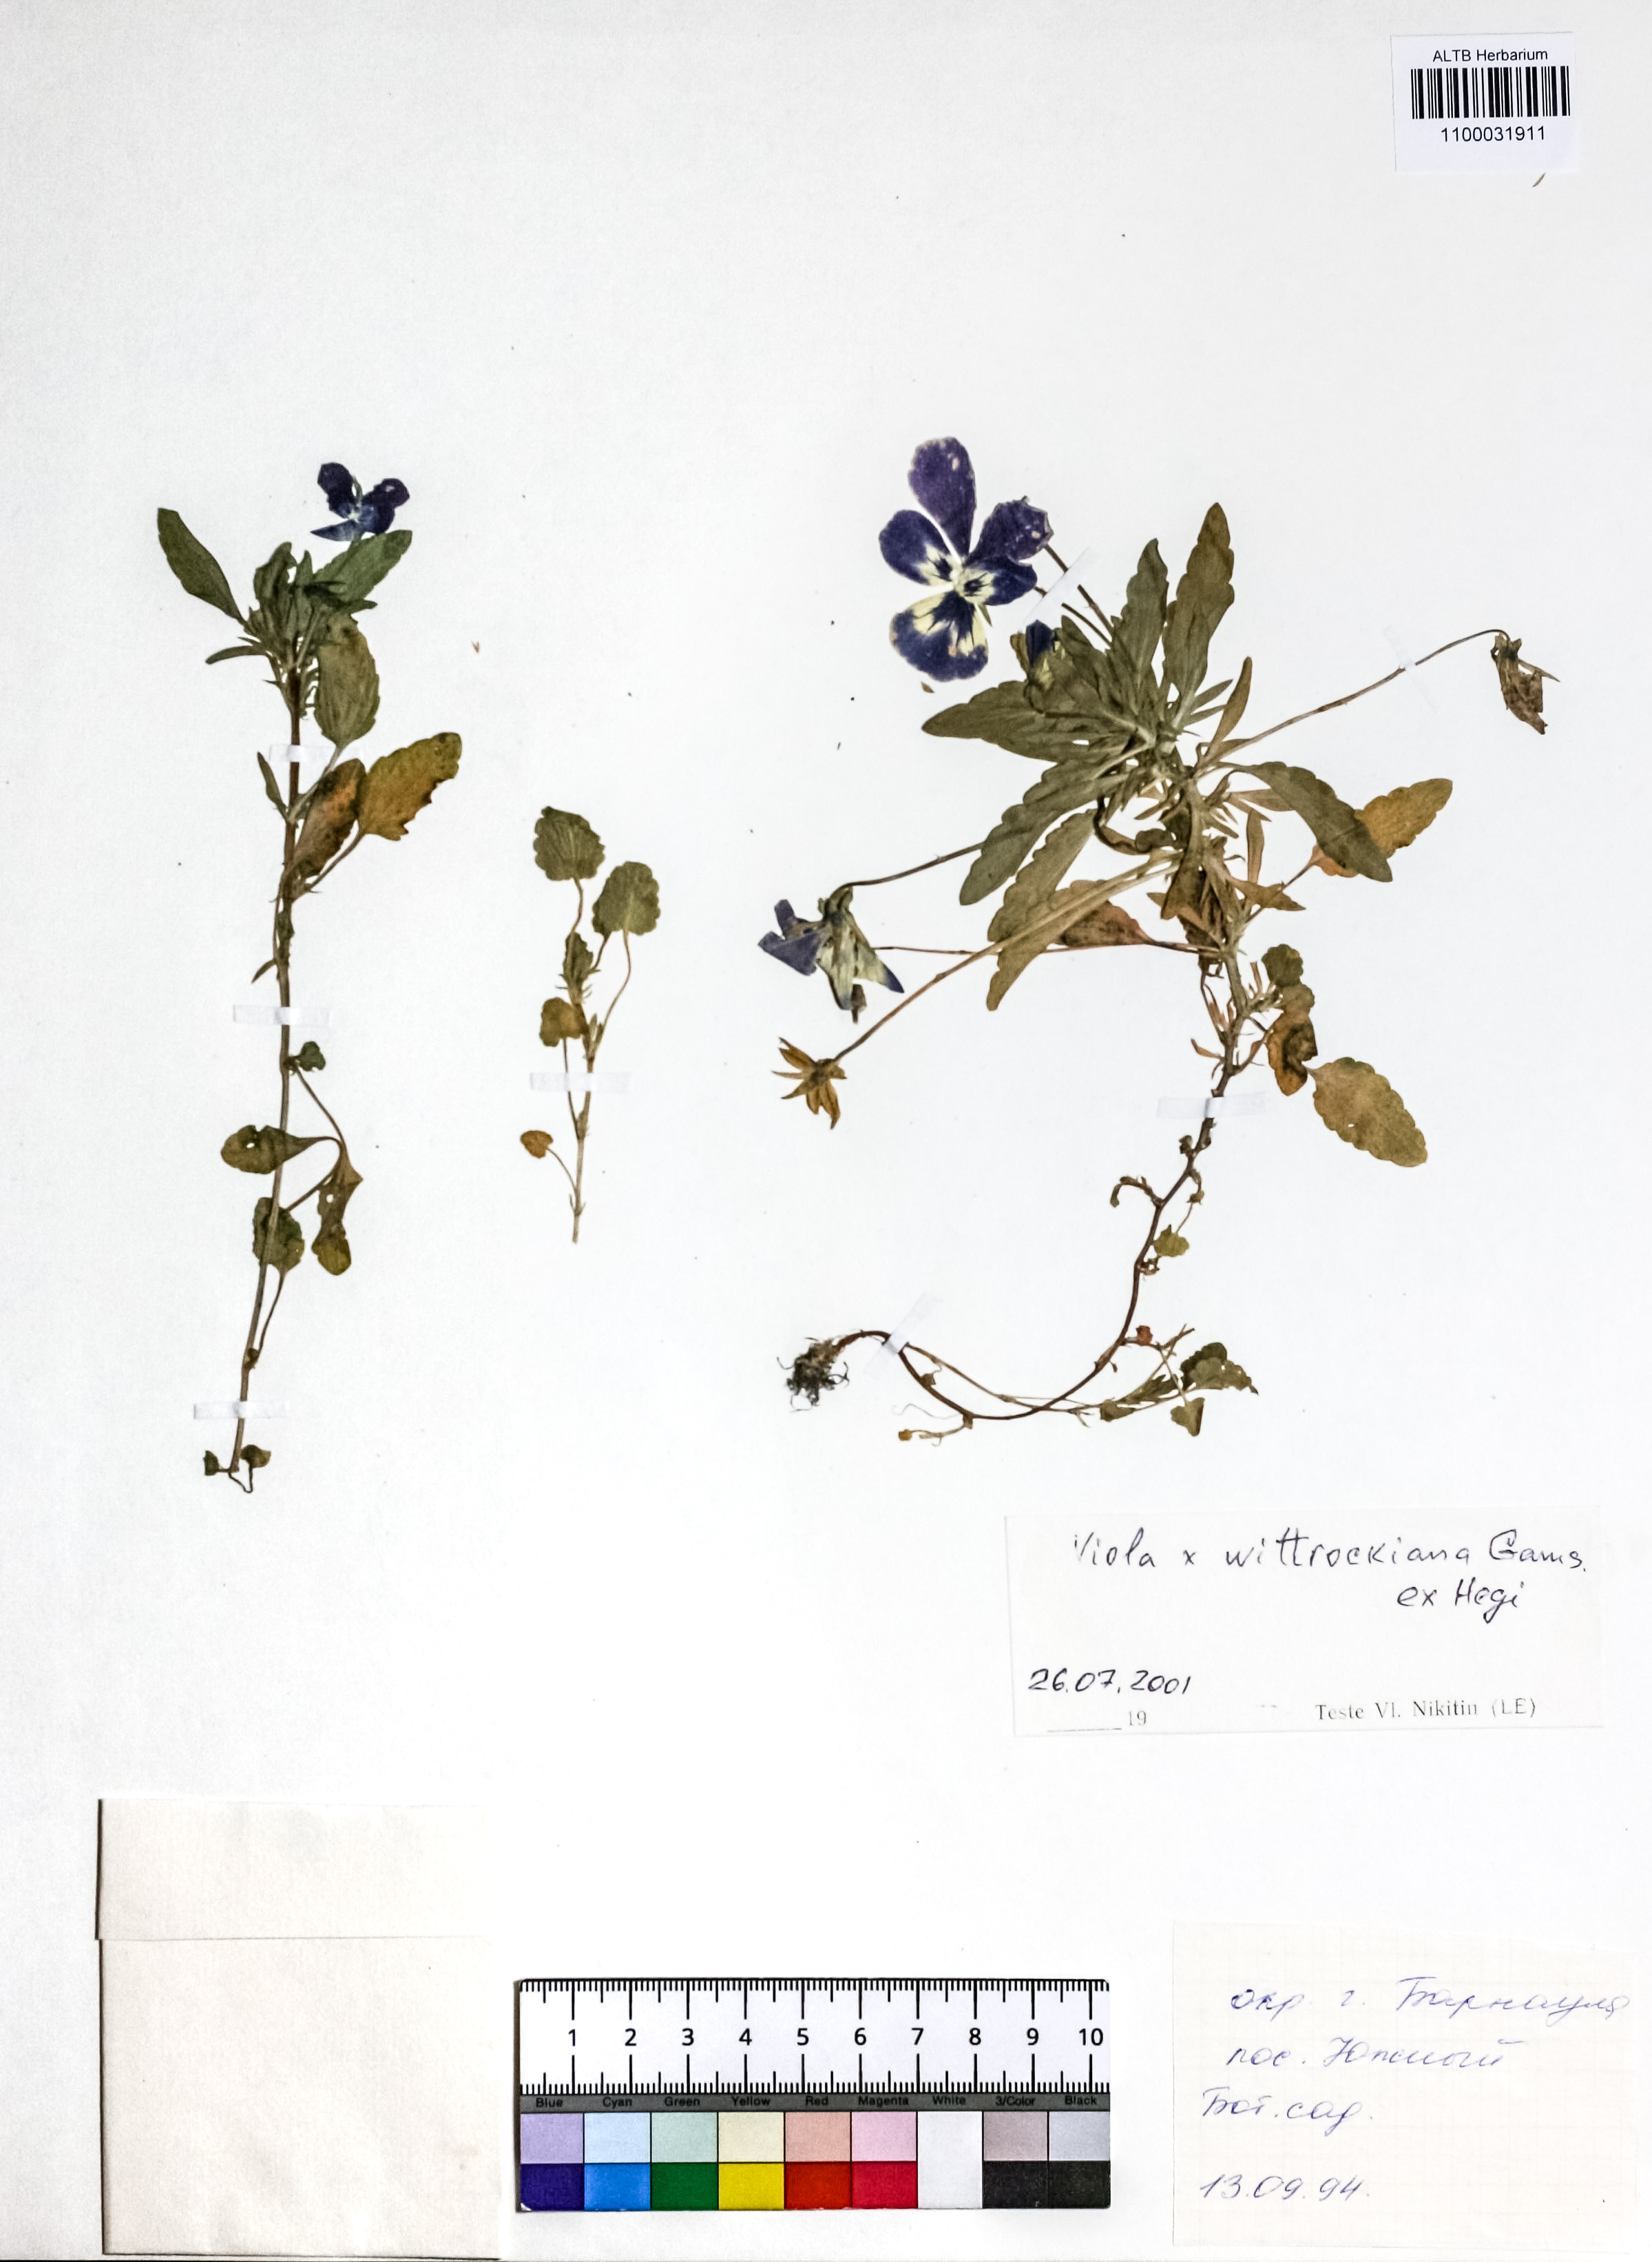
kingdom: Plantae
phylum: Tracheophyta
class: Magnoliopsida
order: Lamiales
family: Plantaginaceae
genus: Veronica
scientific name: Veronica porphyriana
